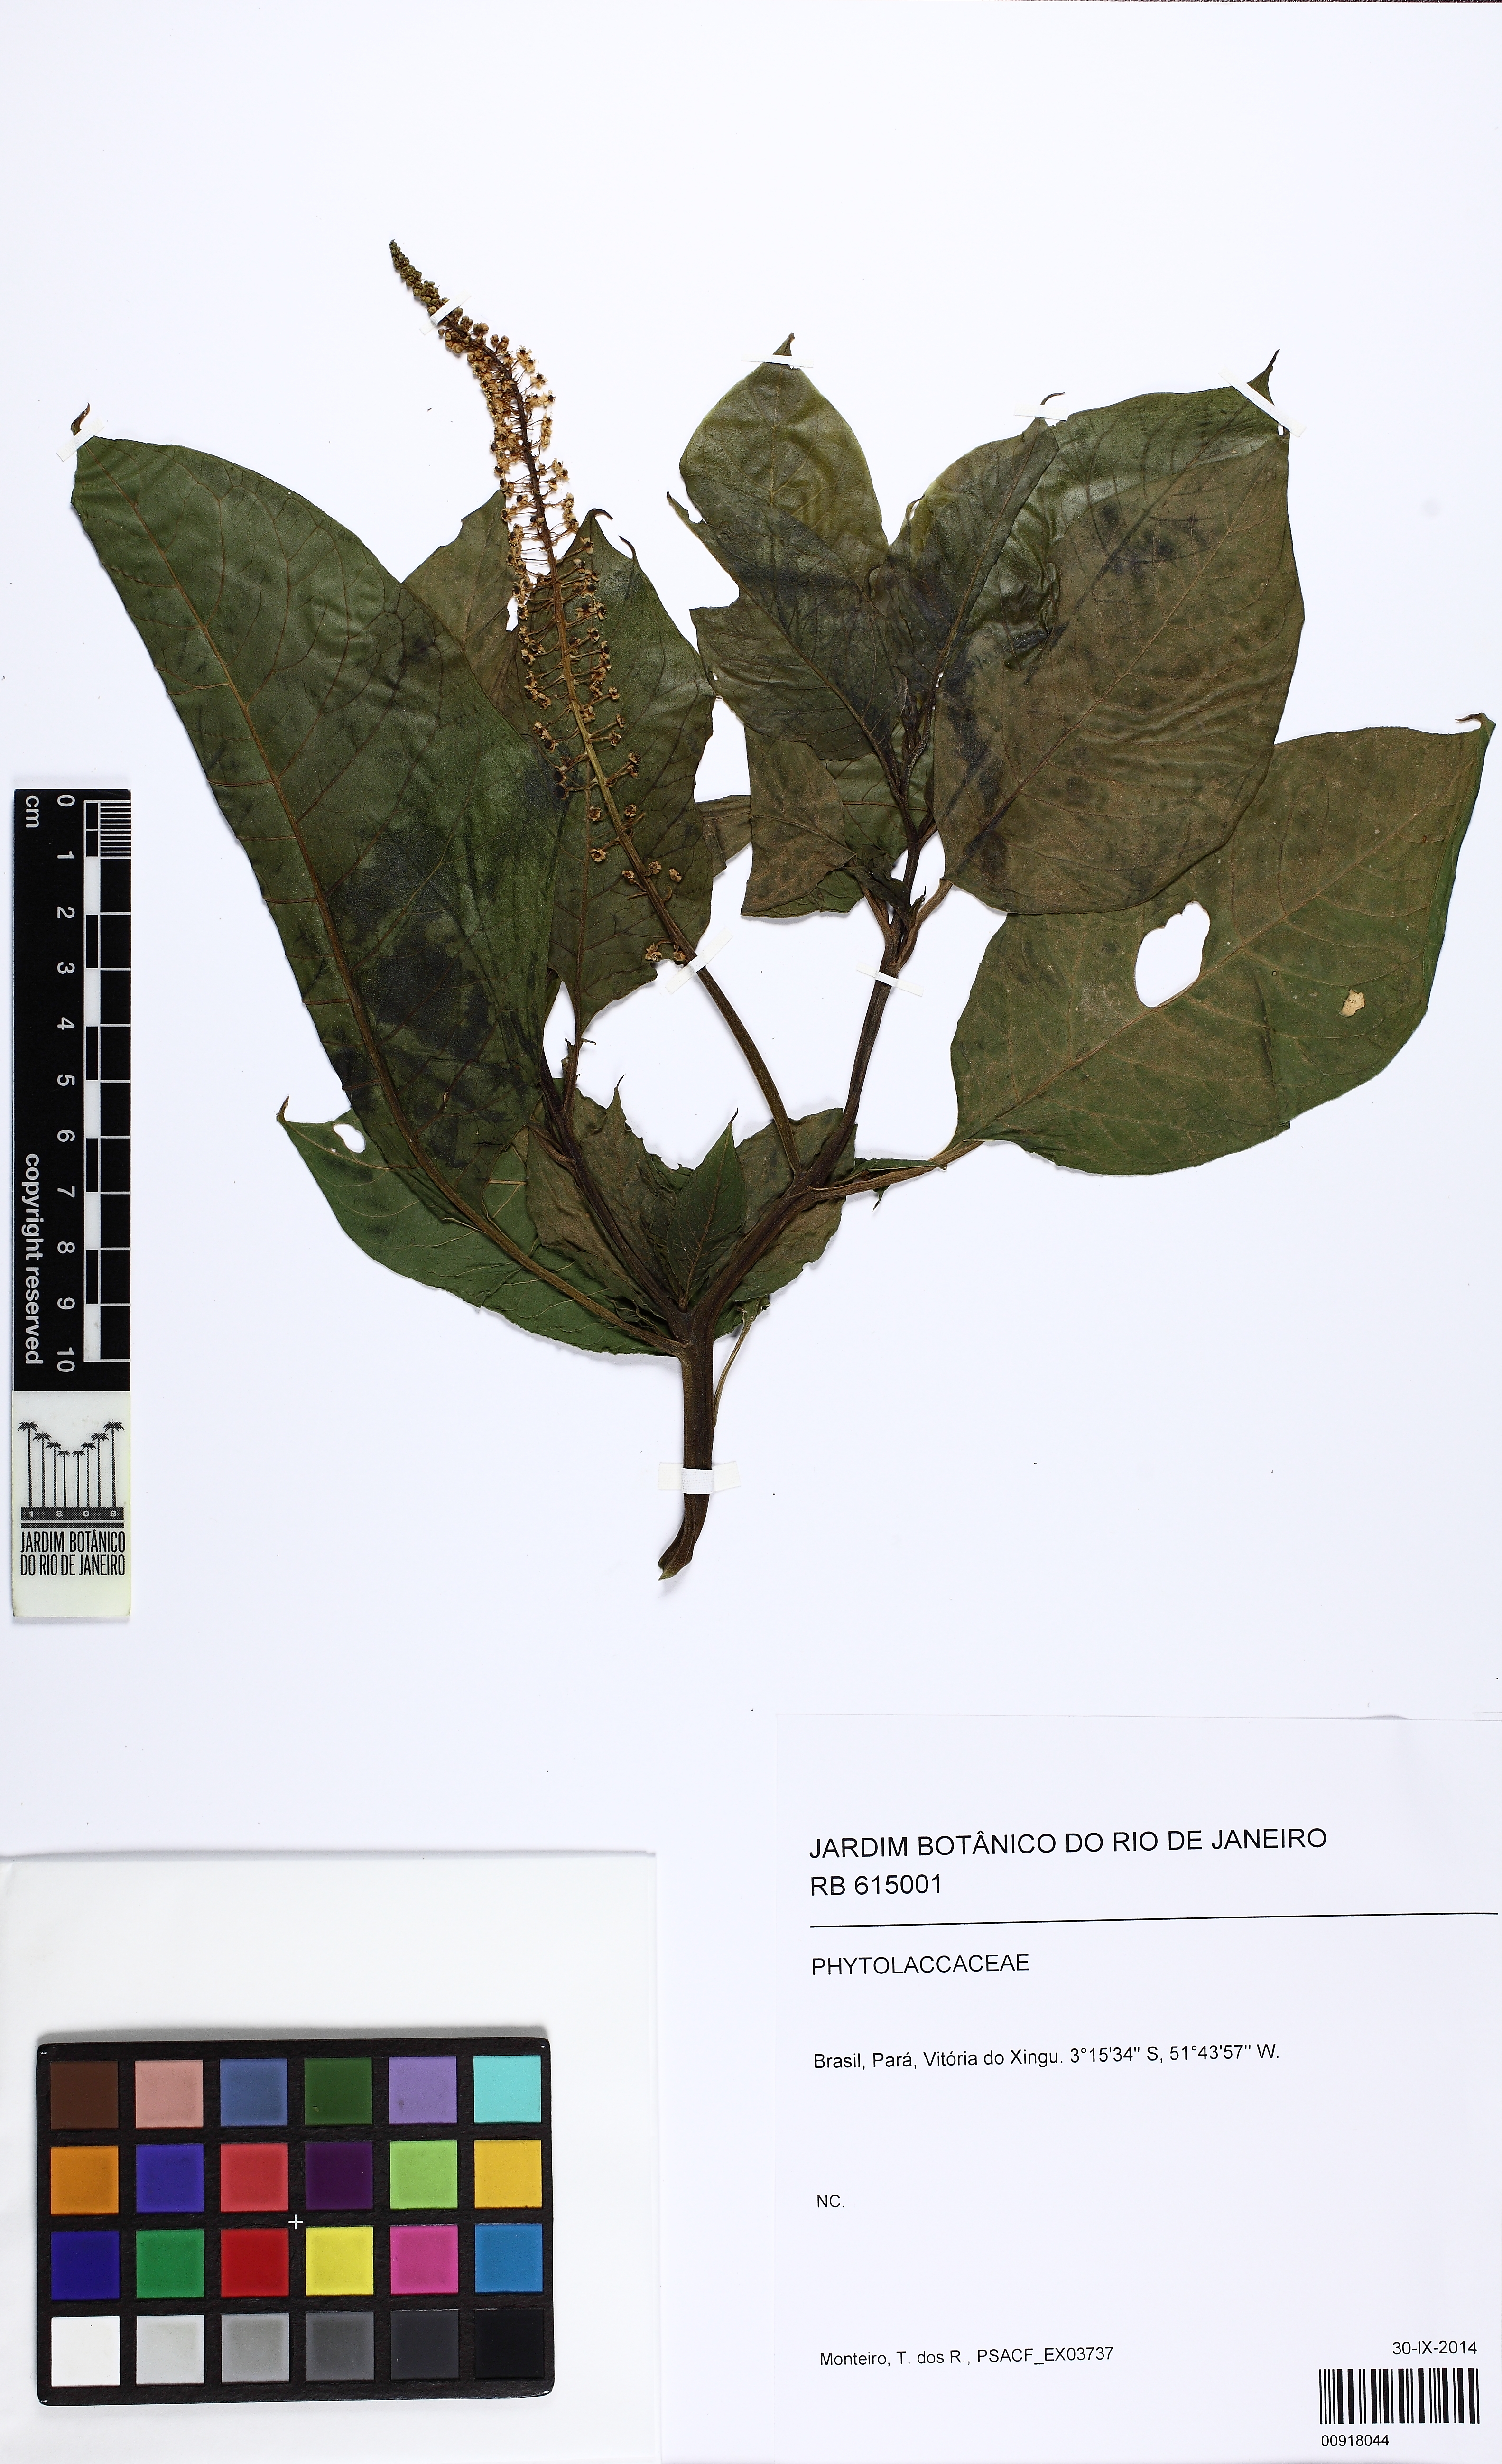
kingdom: Plantae
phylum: Tracheophyta
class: Magnoliopsida
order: Caryophyllales
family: Phytolaccaceae
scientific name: Phytolaccaceae
